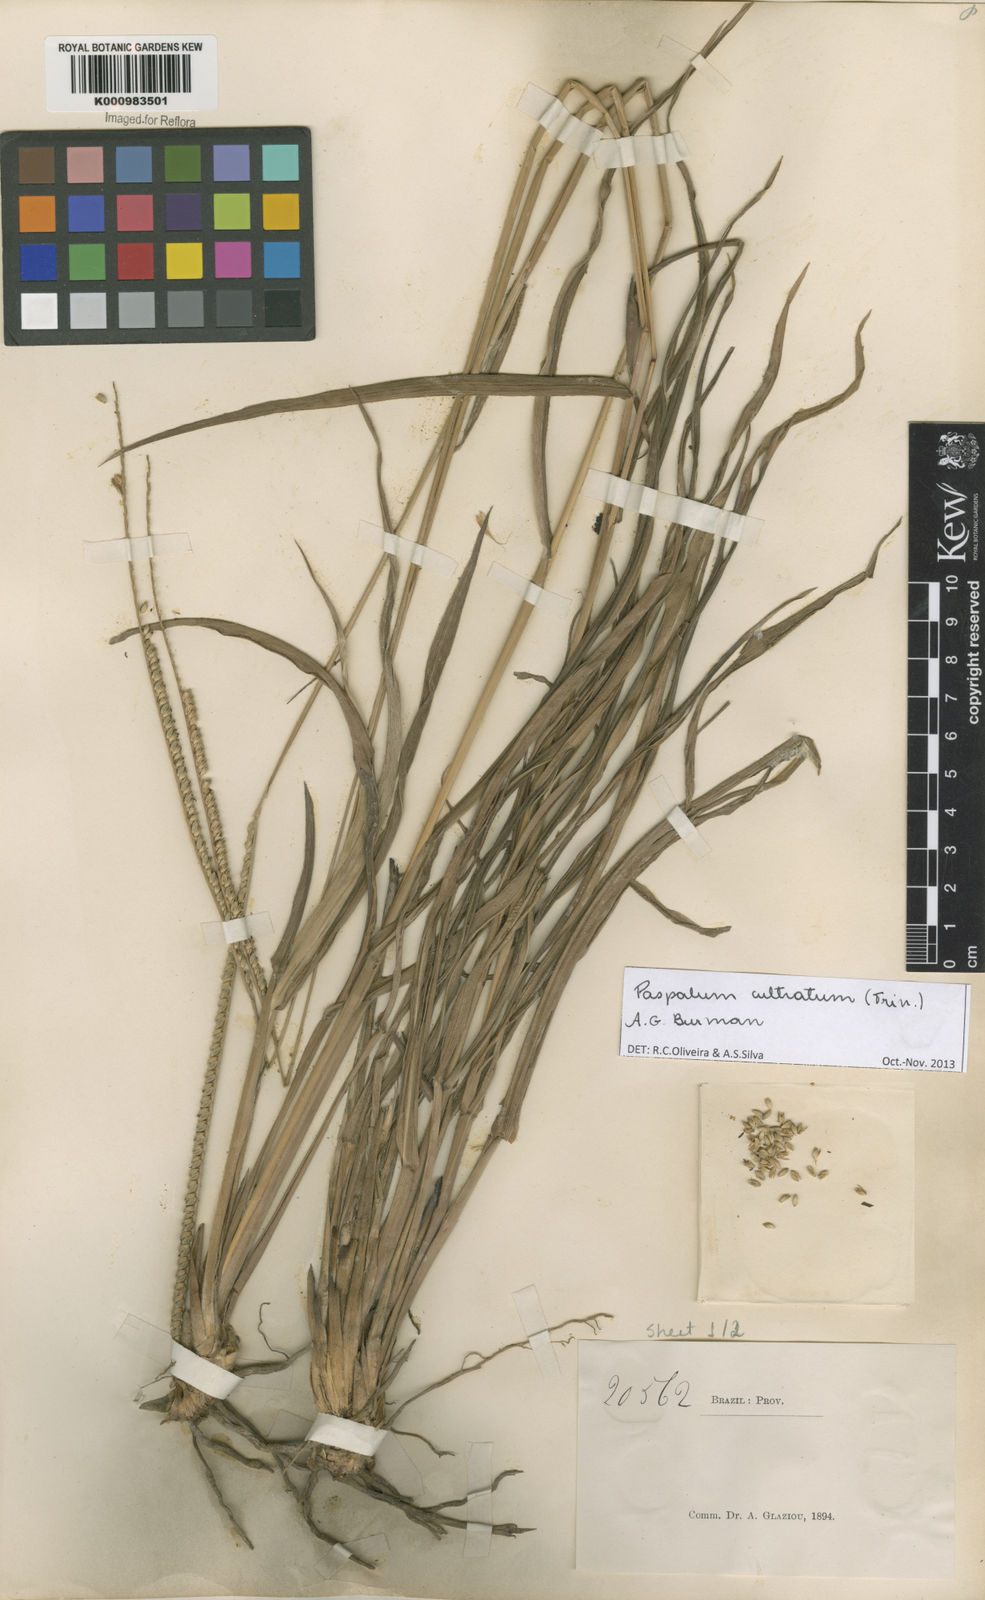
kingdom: Plantae
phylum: Tracheophyta
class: Liliopsida
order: Poales
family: Poaceae
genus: Paspalum
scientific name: Paspalum
